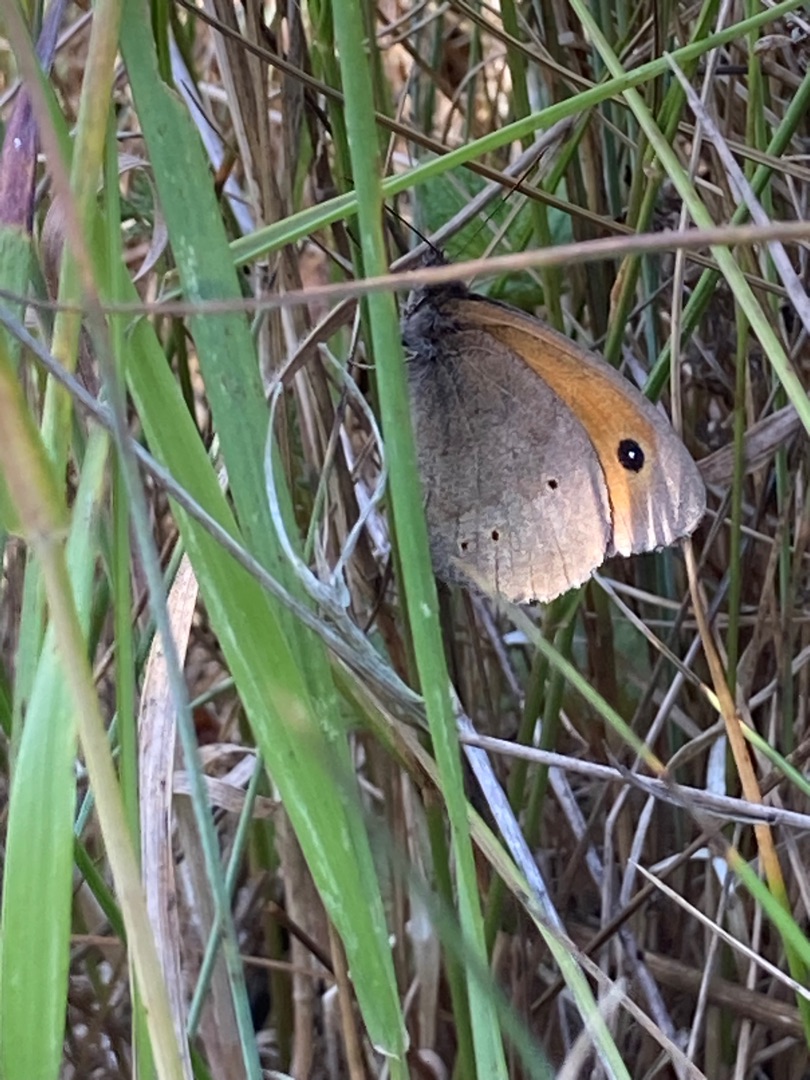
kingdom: Animalia
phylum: Arthropoda
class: Insecta
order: Lepidoptera
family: Nymphalidae
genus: Maniola
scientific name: Maniola jurtina
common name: Græsrandøje
